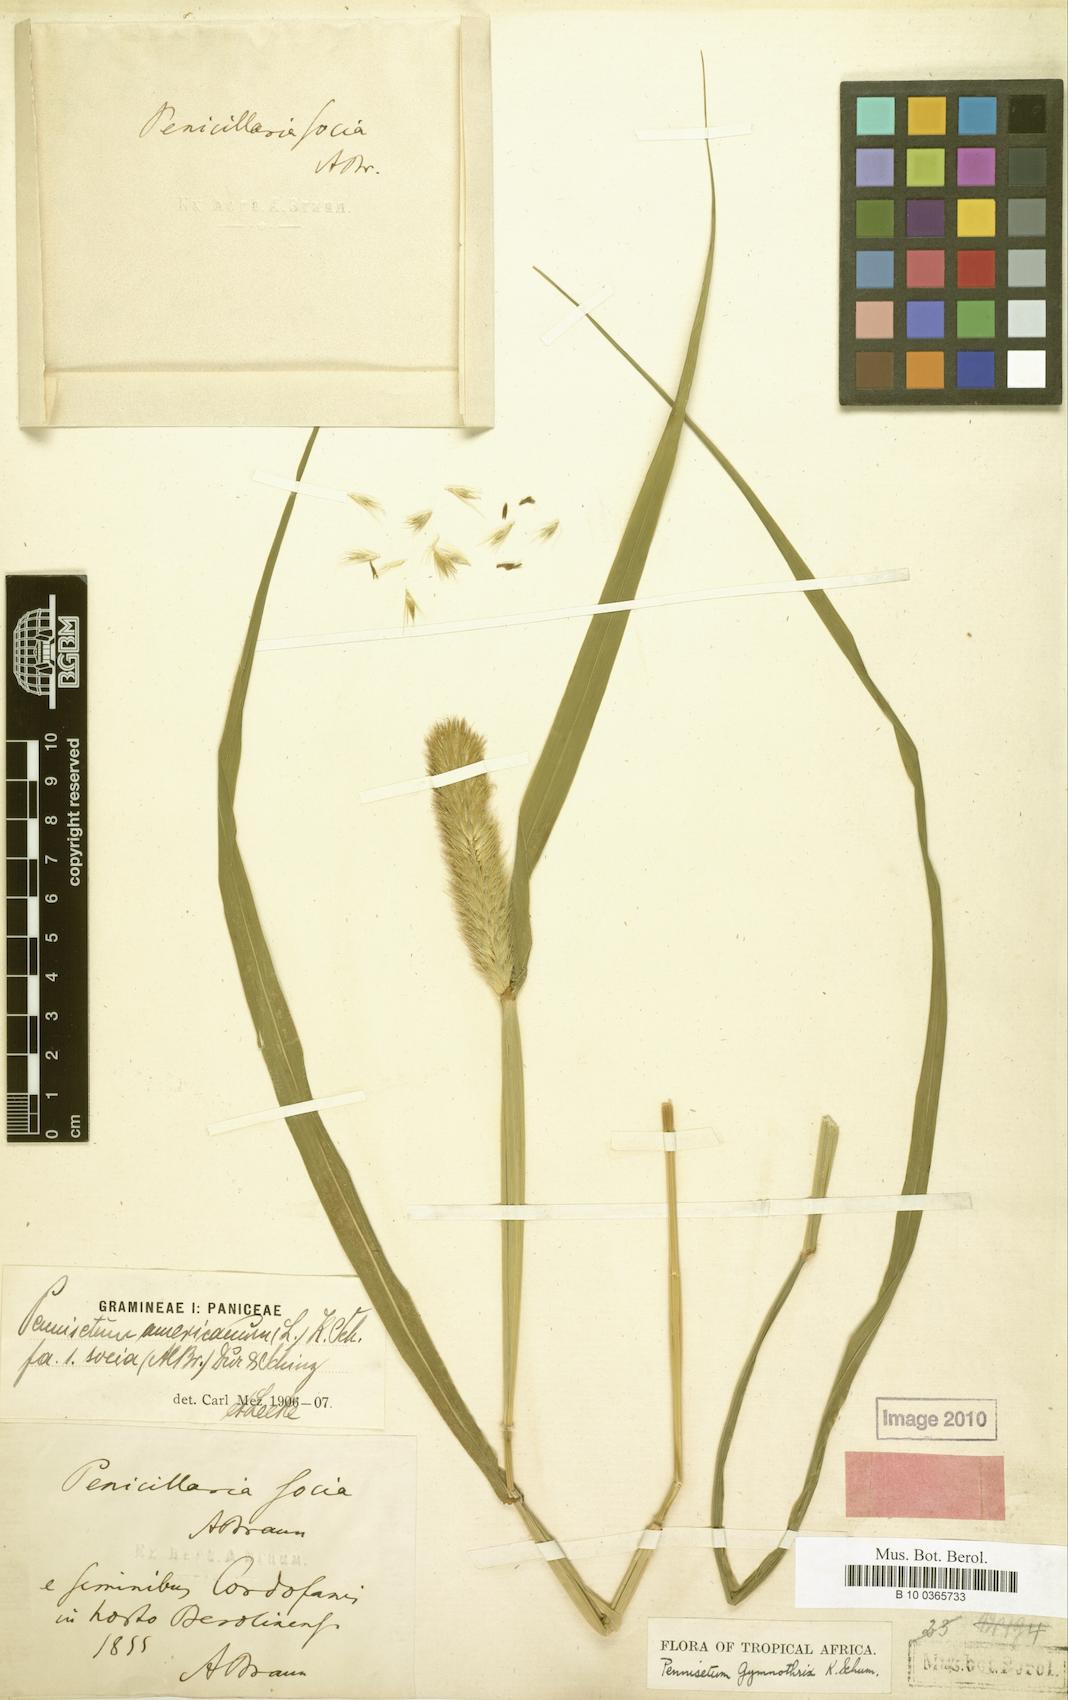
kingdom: Plantae
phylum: Tracheophyta
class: Liliopsida
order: Poales
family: Poaceae
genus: Cenchrus
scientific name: Cenchrus sieberianus
